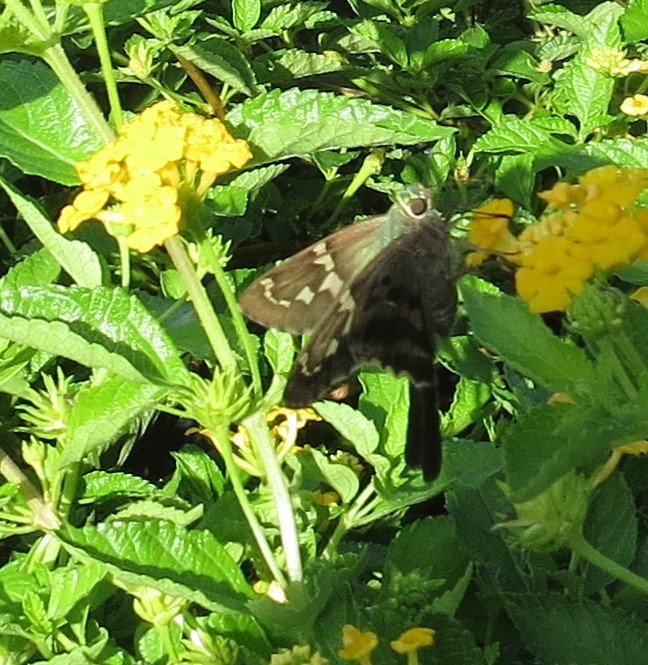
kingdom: Animalia
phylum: Arthropoda
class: Insecta
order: Lepidoptera
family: Hesperiidae
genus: Urbanus
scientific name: Urbanus proteus
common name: Long-tailed Skipper
